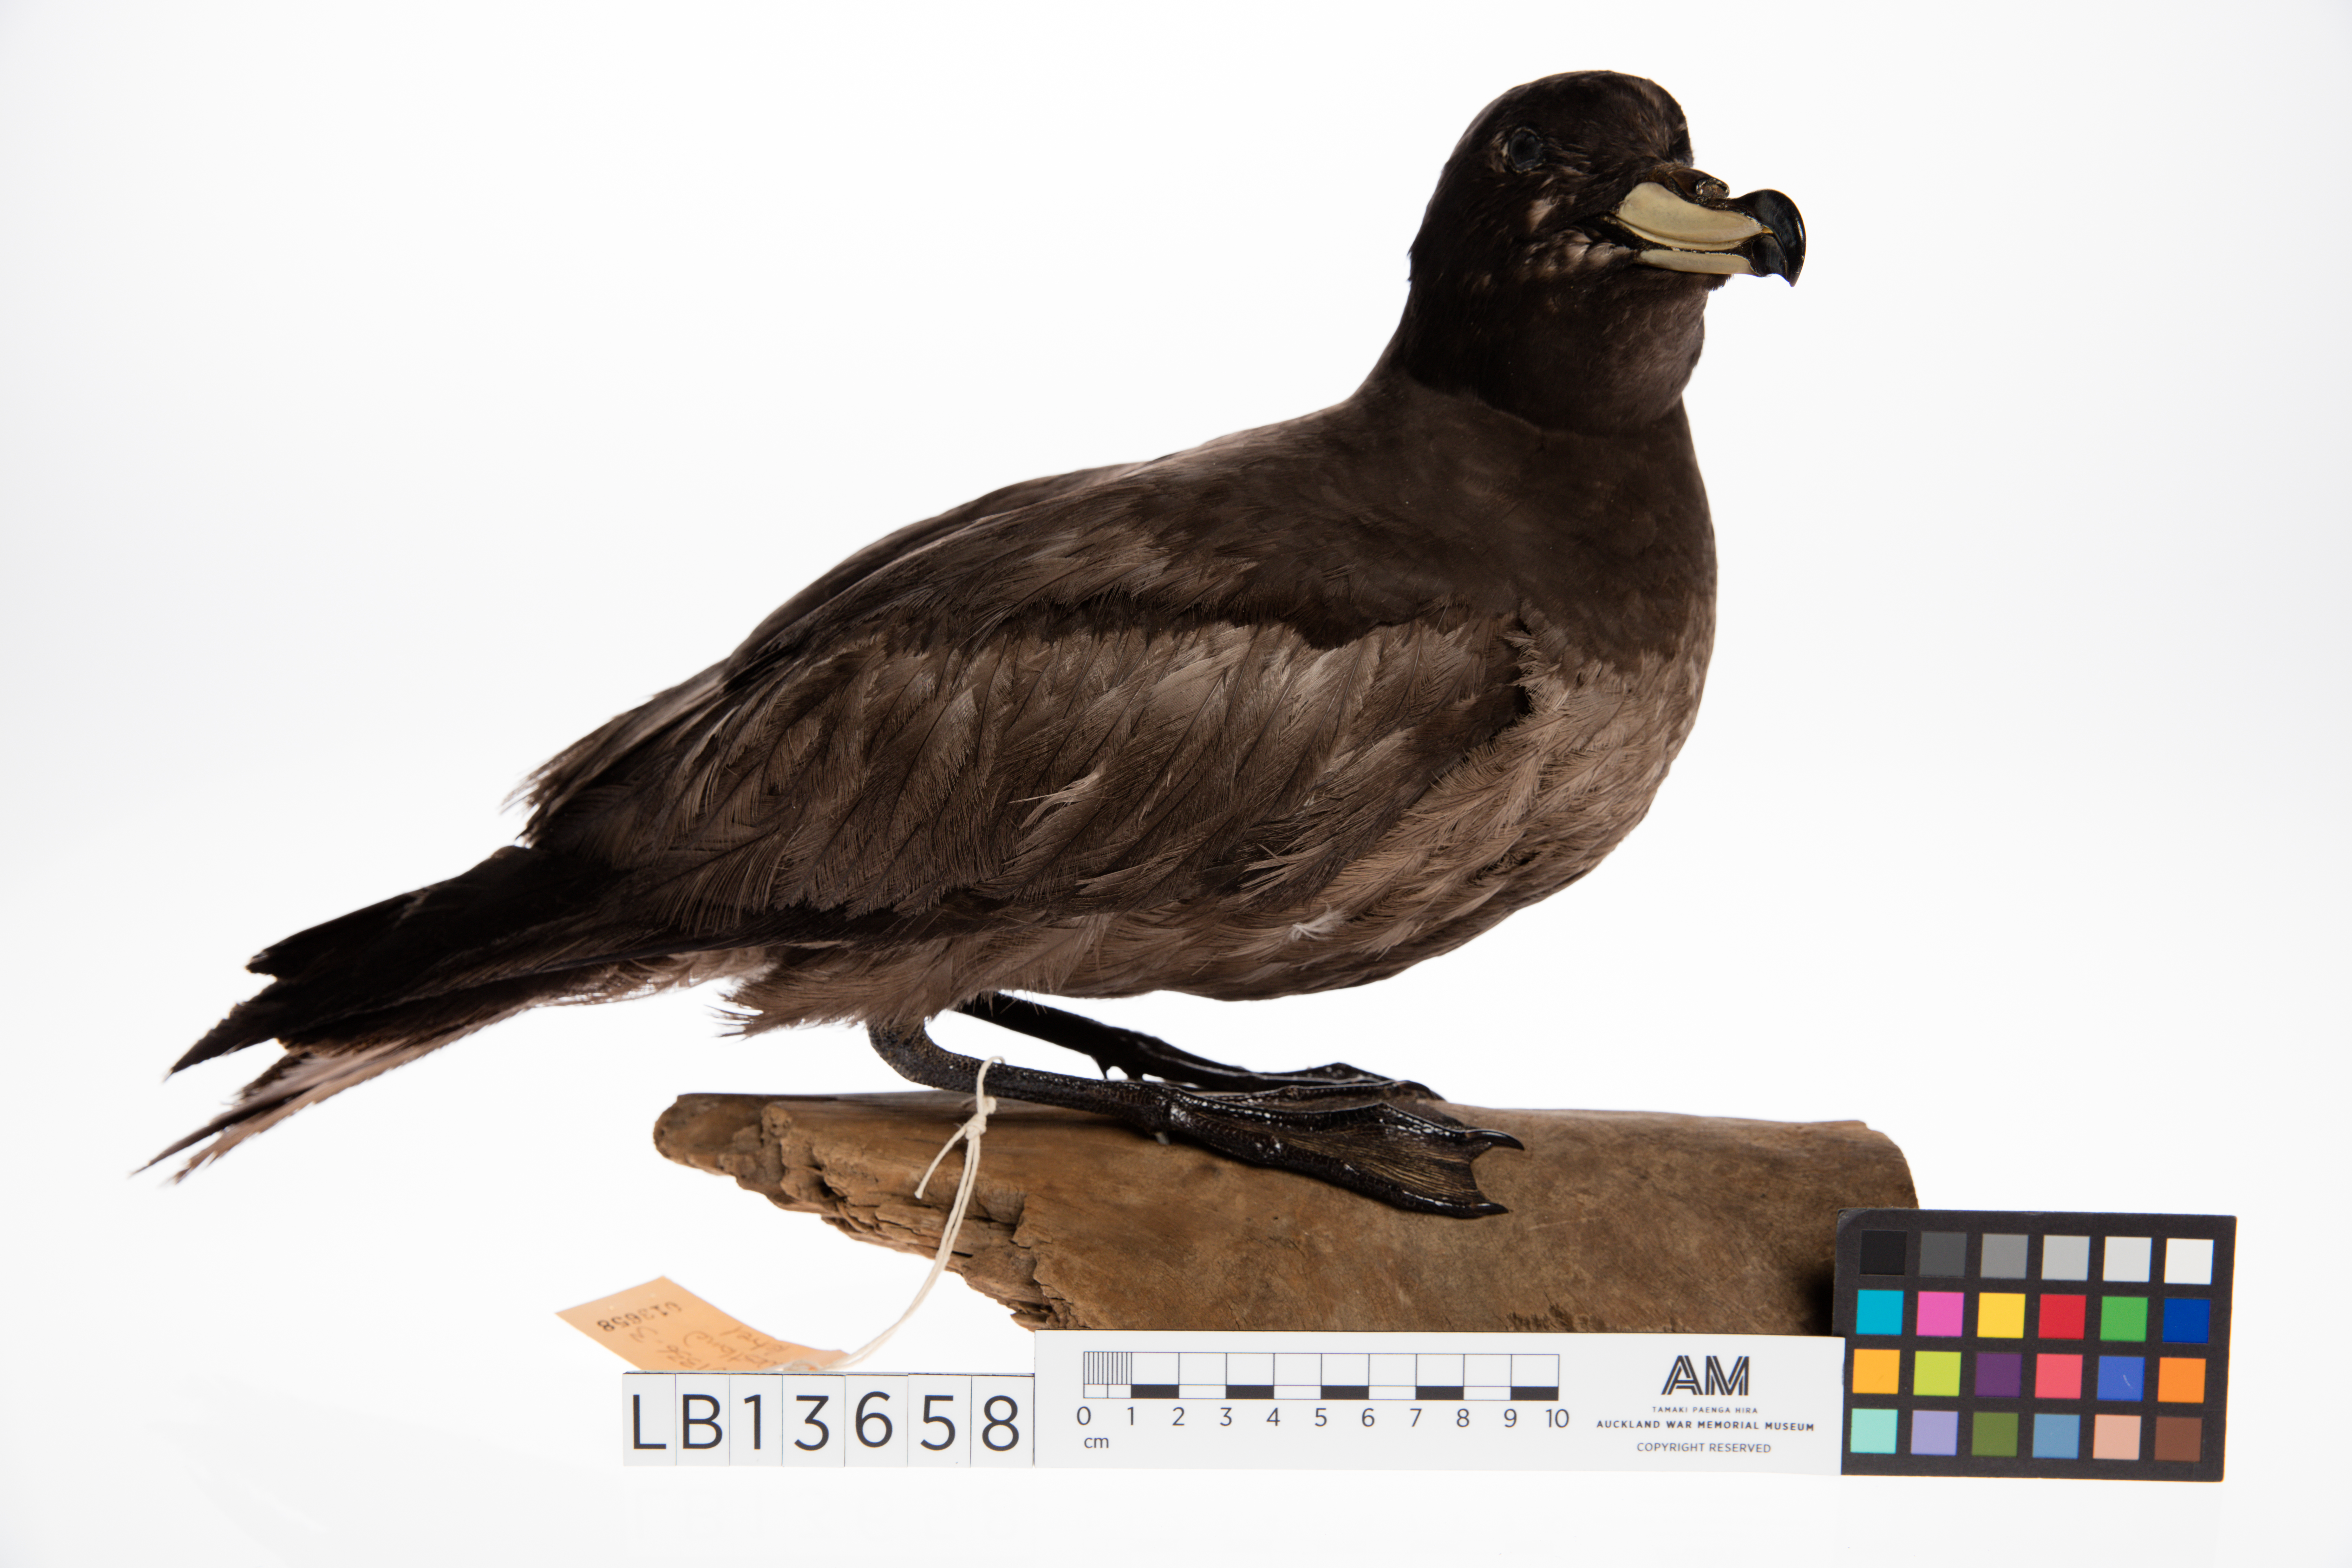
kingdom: Animalia
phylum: Chordata
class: Aves
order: Procellariiformes
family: Procellariidae
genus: Procellaria
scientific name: Procellaria westlandica
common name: Westland petrel
